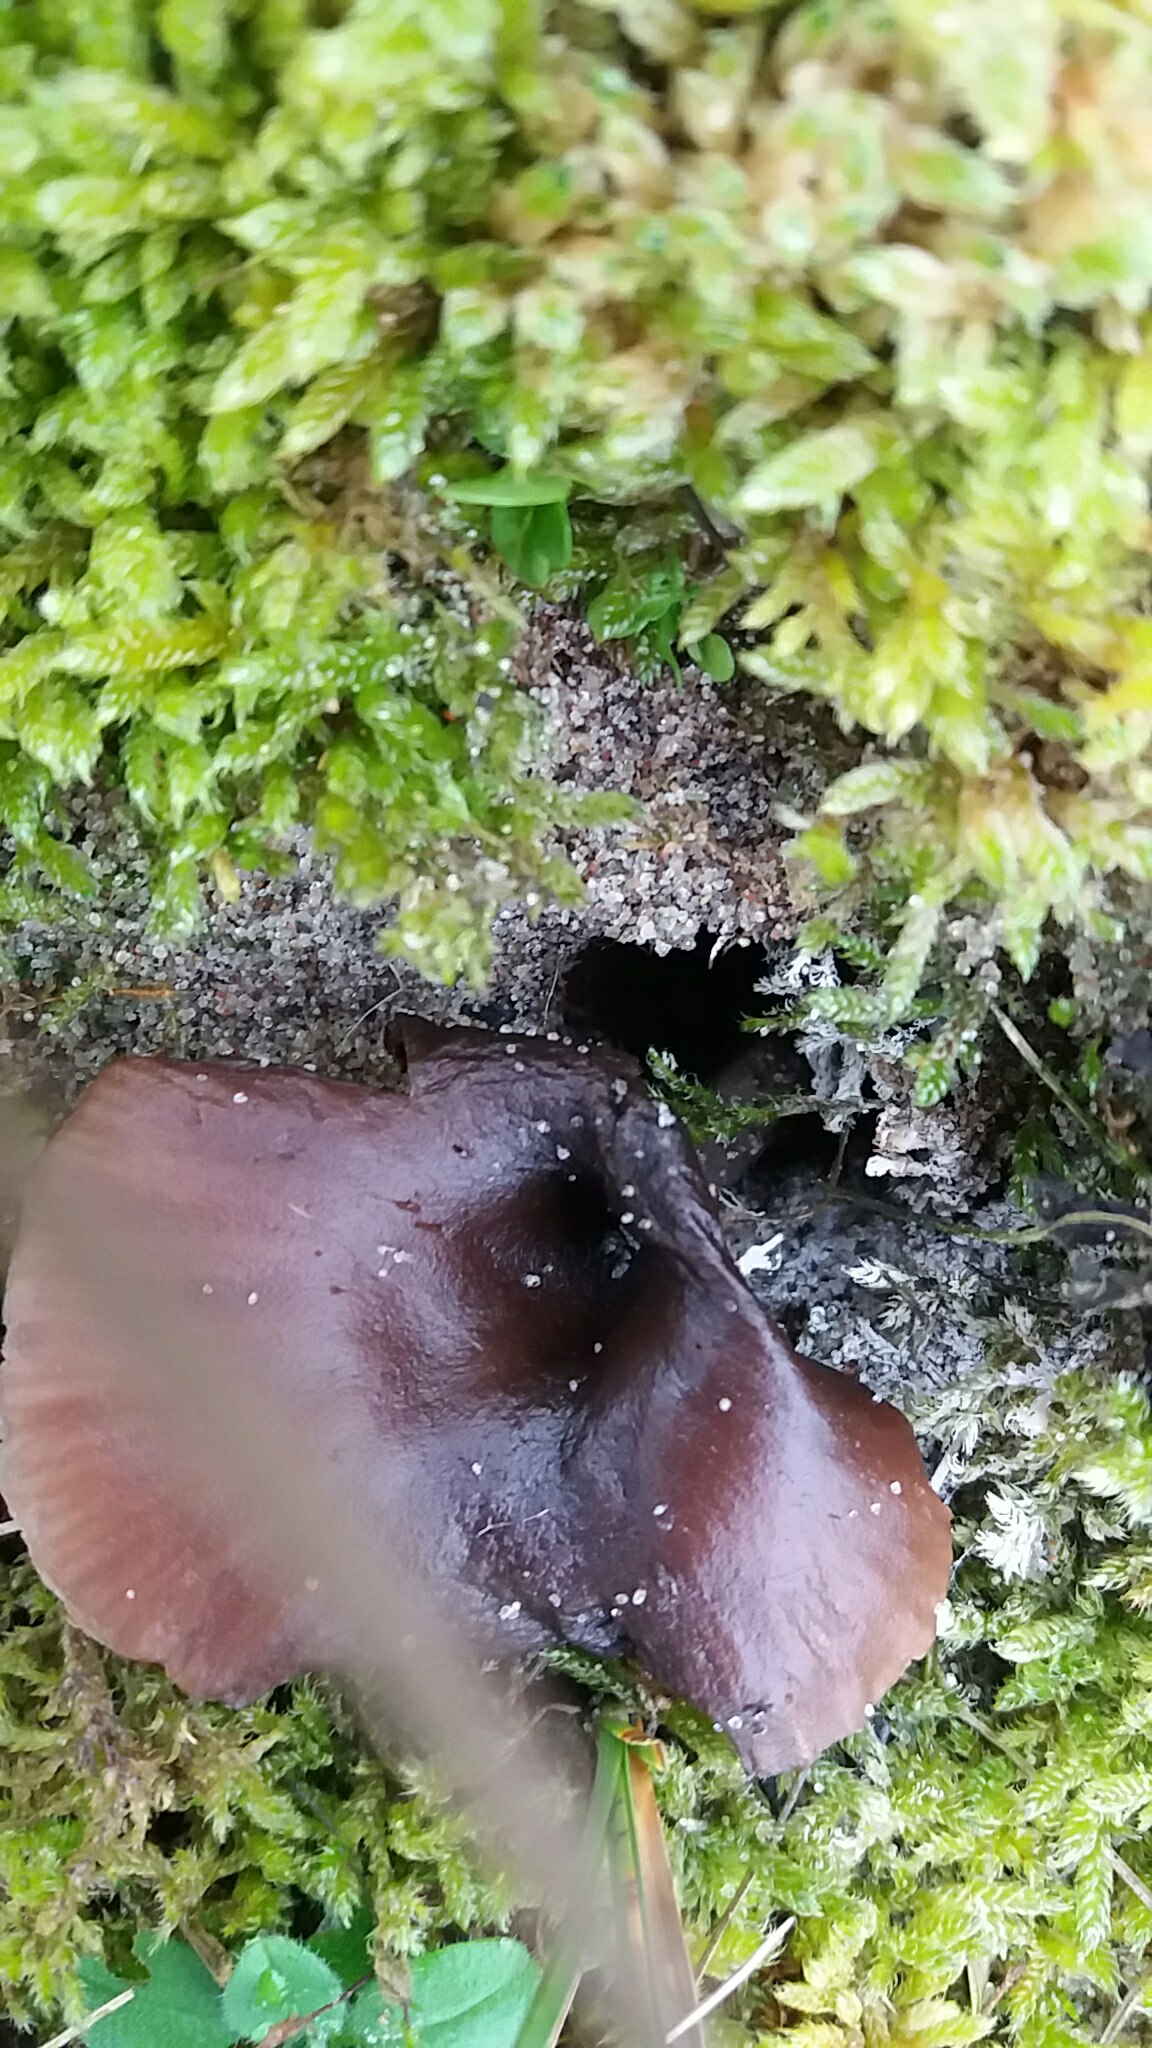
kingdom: Fungi
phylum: Basidiomycota
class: Agaricomycetes
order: Agaricales
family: Pseudoclitocybaceae
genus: Pseudoclitocybe
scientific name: Pseudoclitocybe
